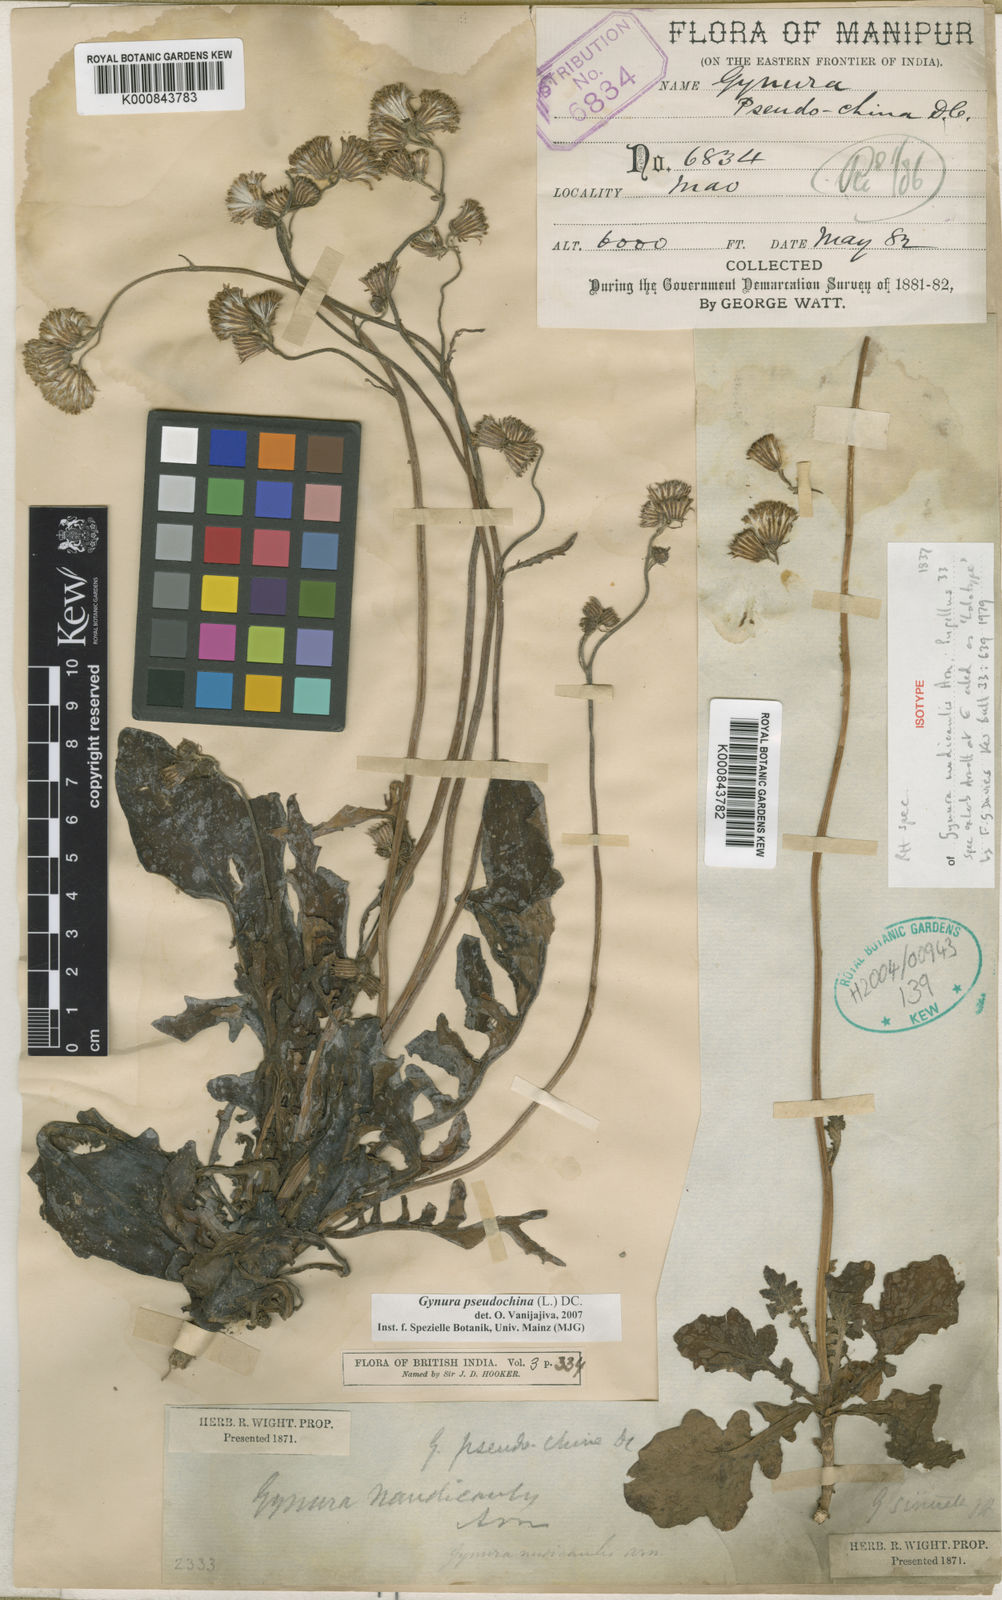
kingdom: Plantae
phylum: Tracheophyta
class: Magnoliopsida
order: Asterales
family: Asteraceae
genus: Gynura
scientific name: Gynura pseudochina
